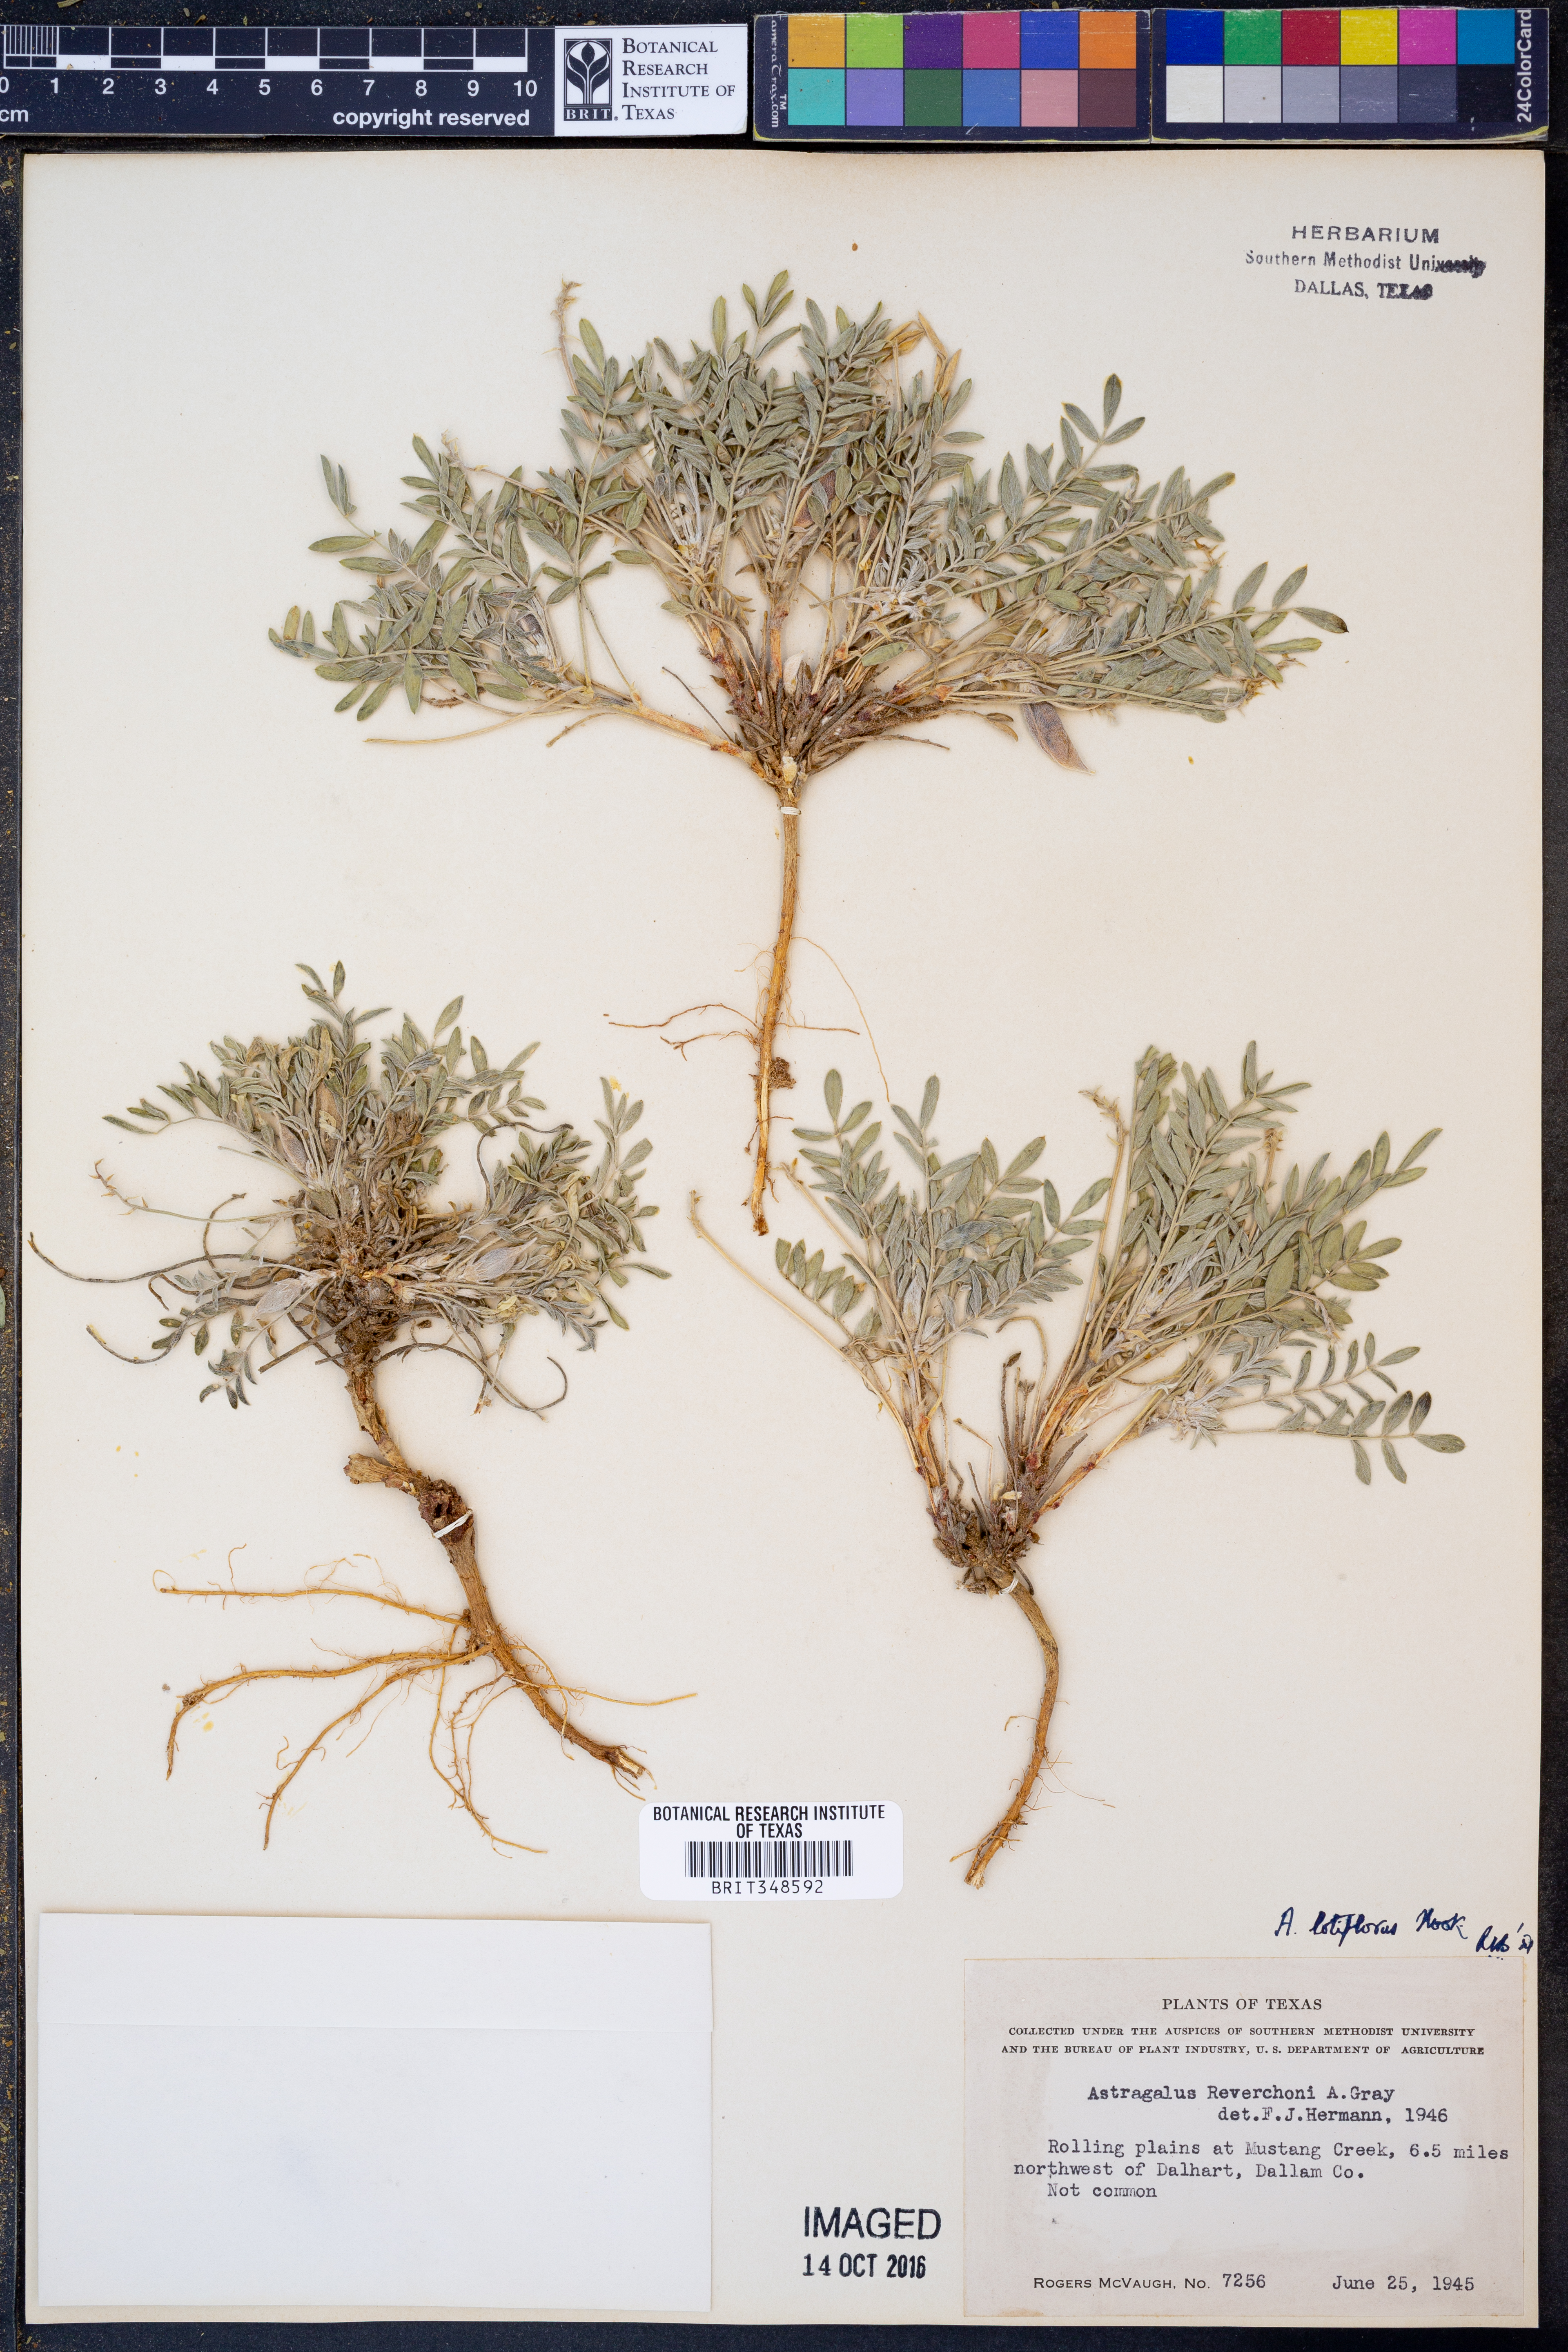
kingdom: Plantae
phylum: Tracheophyta
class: Magnoliopsida
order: Fabales
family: Fabaceae
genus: Astragalus
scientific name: Astragalus lotiflorus
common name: Lotus milk-vetch
